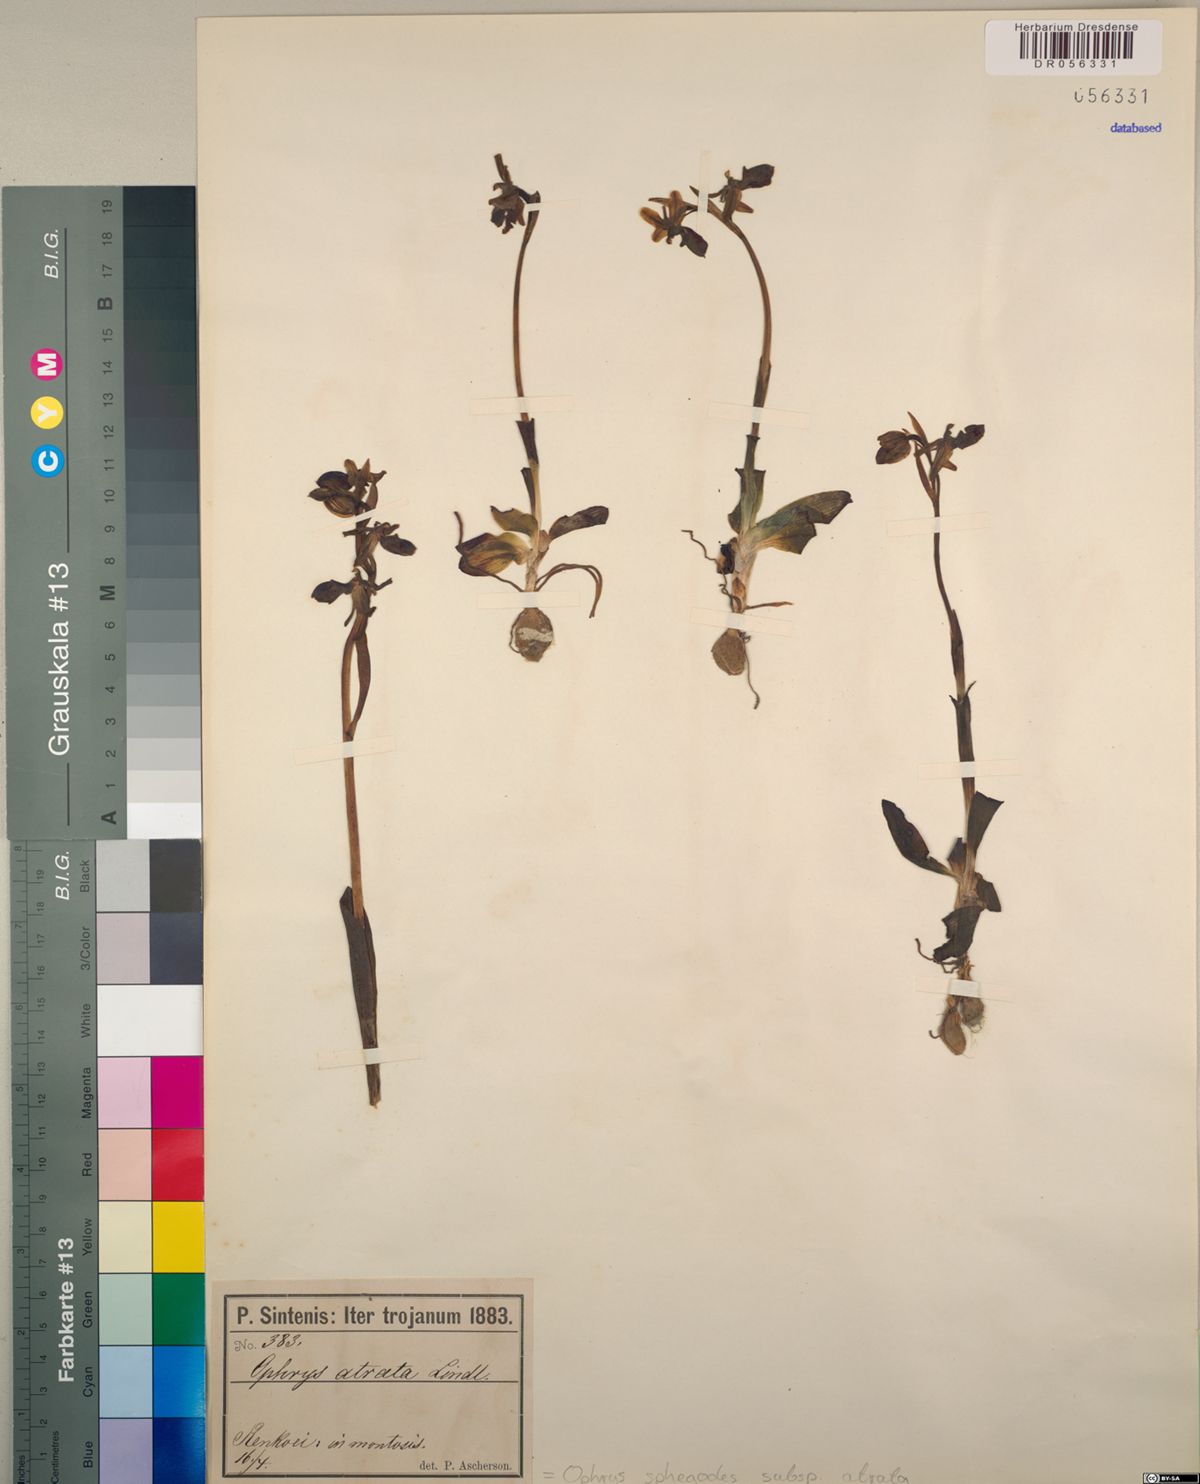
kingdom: Plantae
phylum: Tracheophyta
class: Liliopsida
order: Asparagales
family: Orchidaceae
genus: Ophrys
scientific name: Ophrys sphegodes
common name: Early spider-orchid
